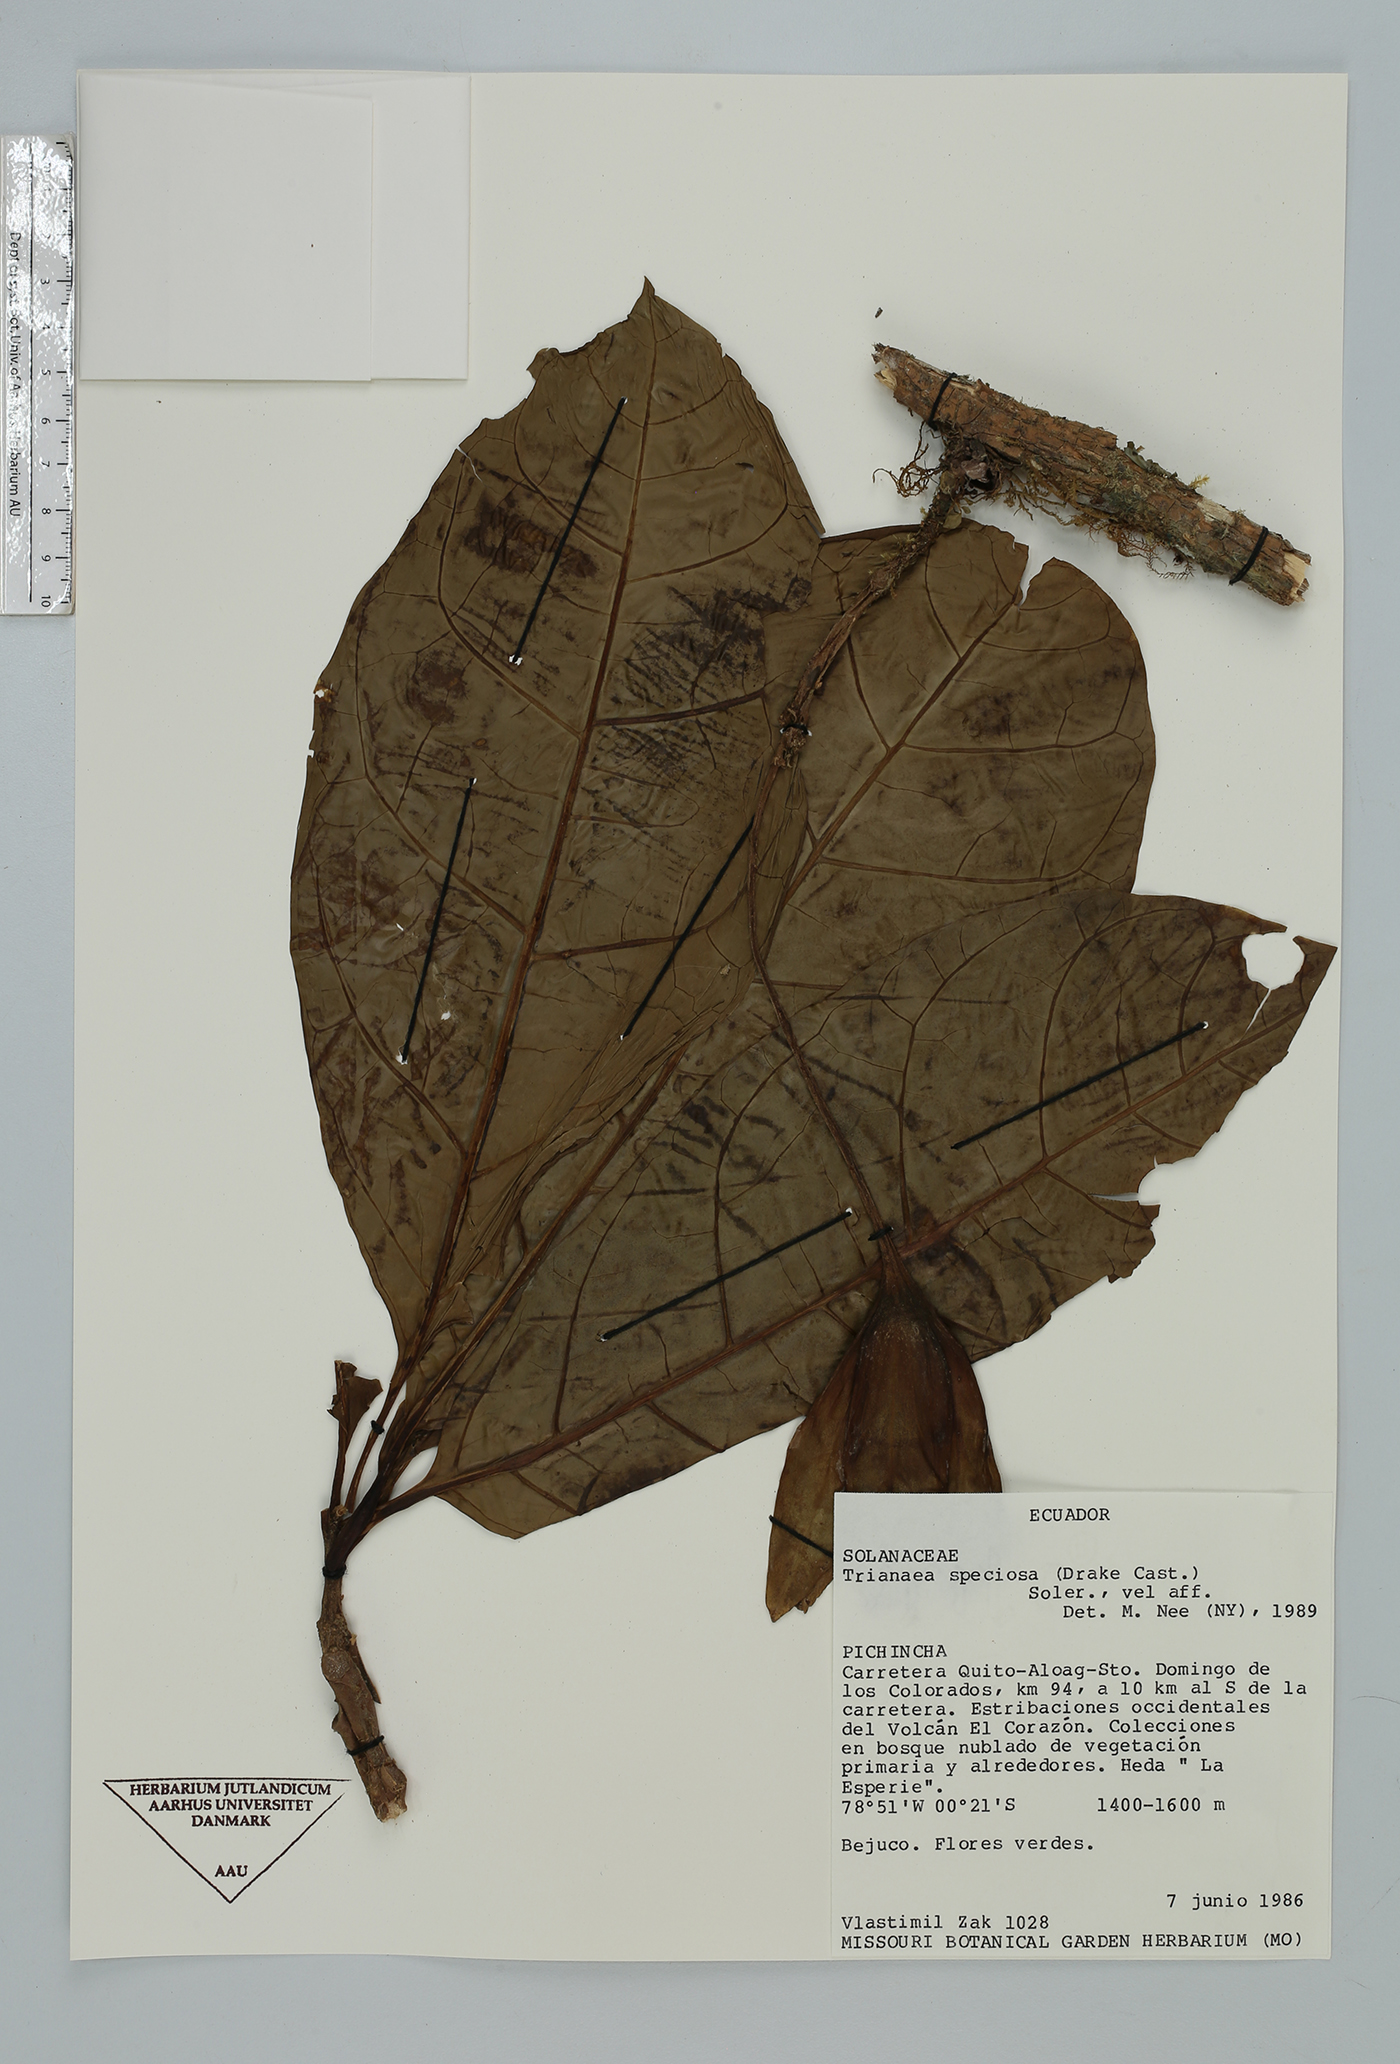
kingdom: Plantae
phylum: Tracheophyta
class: Magnoliopsida
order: Solanales
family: Solanaceae
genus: Trianaea
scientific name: Trianaea nobilis
